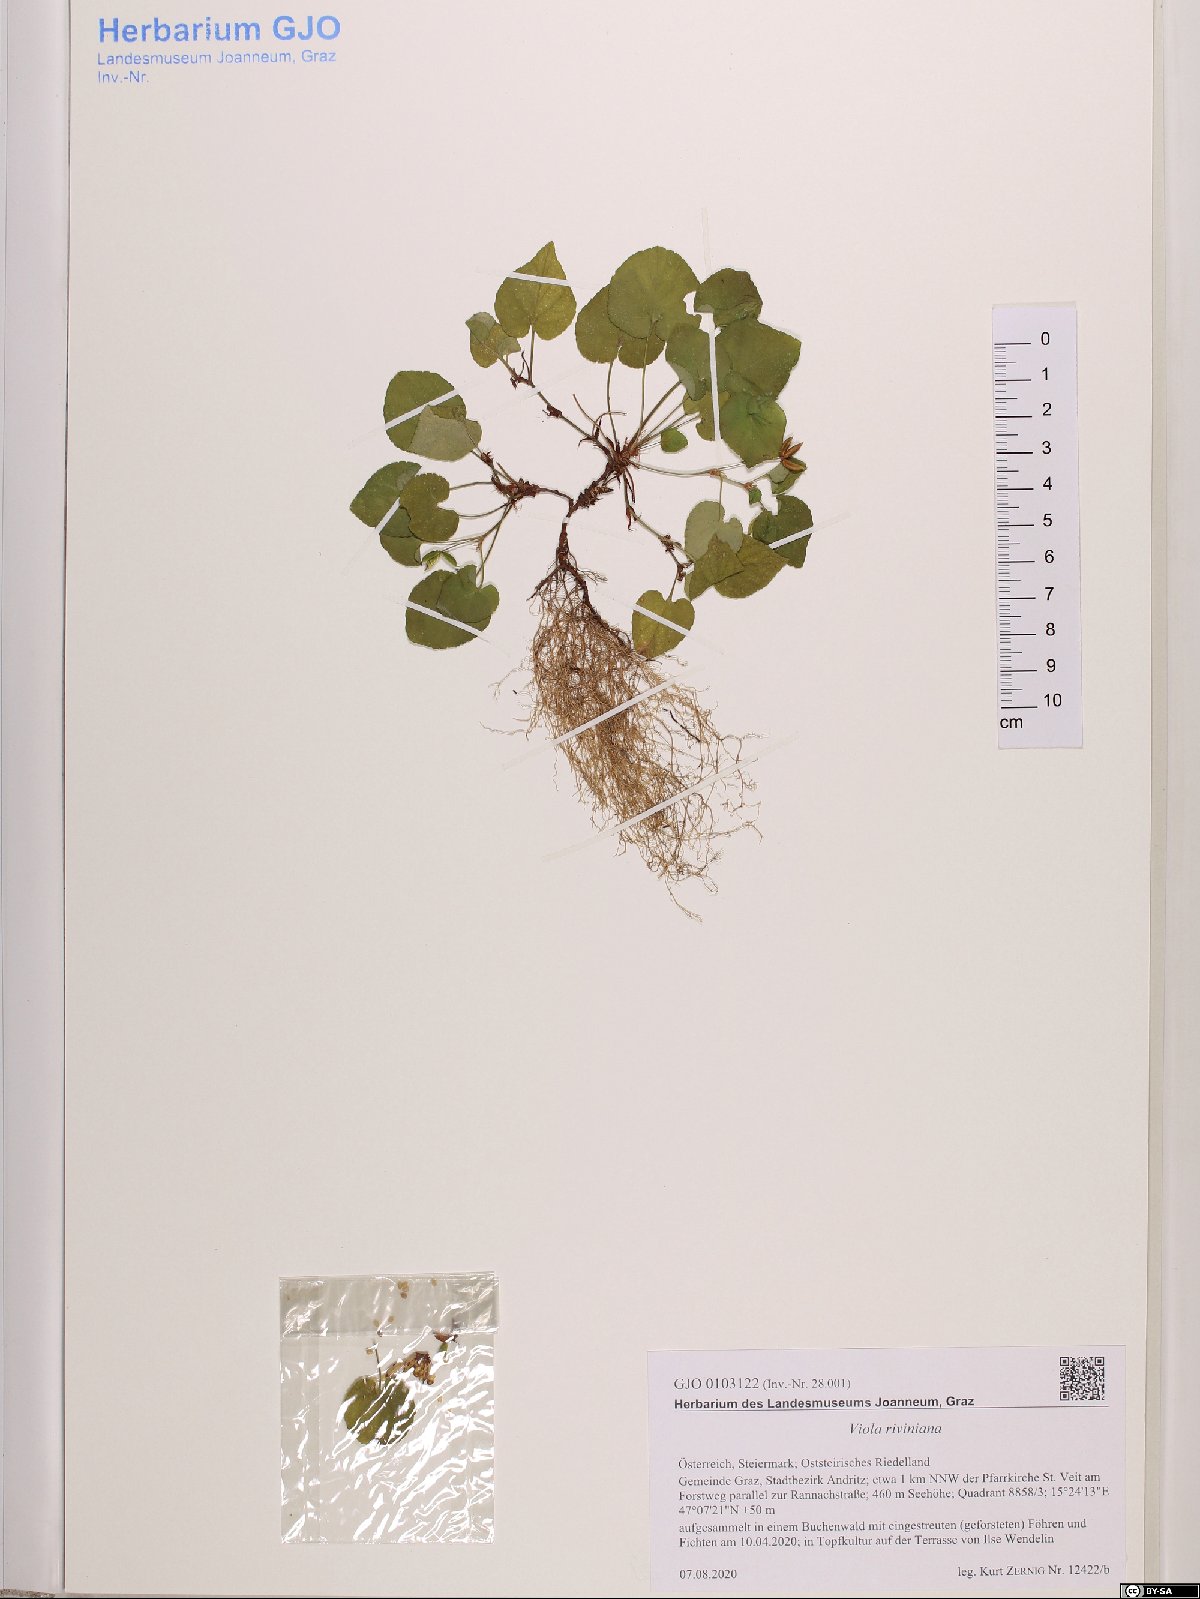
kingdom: Plantae
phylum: Tracheophyta
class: Magnoliopsida
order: Malpighiales
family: Violaceae
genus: Viola
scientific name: Viola riviniana
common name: Common dog-violet
